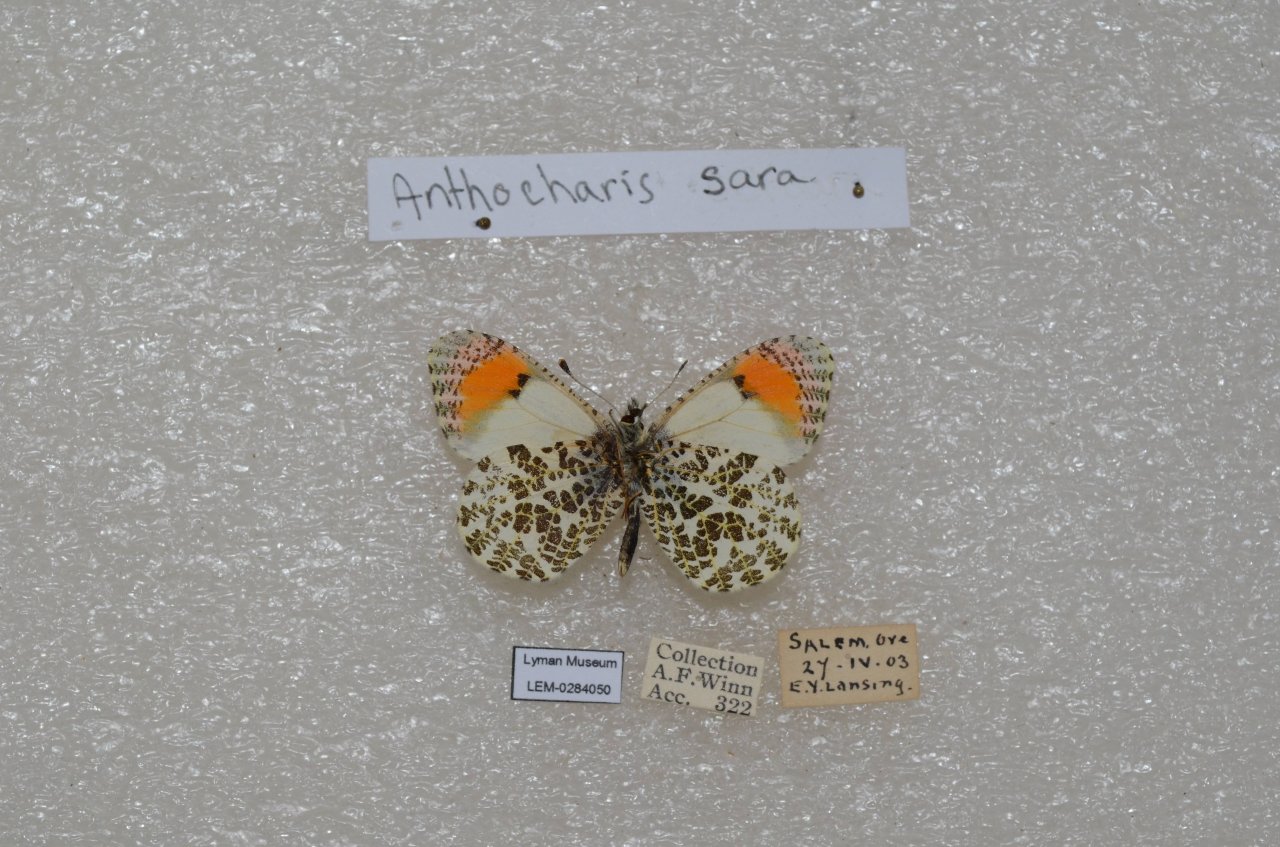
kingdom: Animalia
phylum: Arthropoda
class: Insecta
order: Lepidoptera
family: Pieridae
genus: Anthocharis
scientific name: Anthocharis sara
